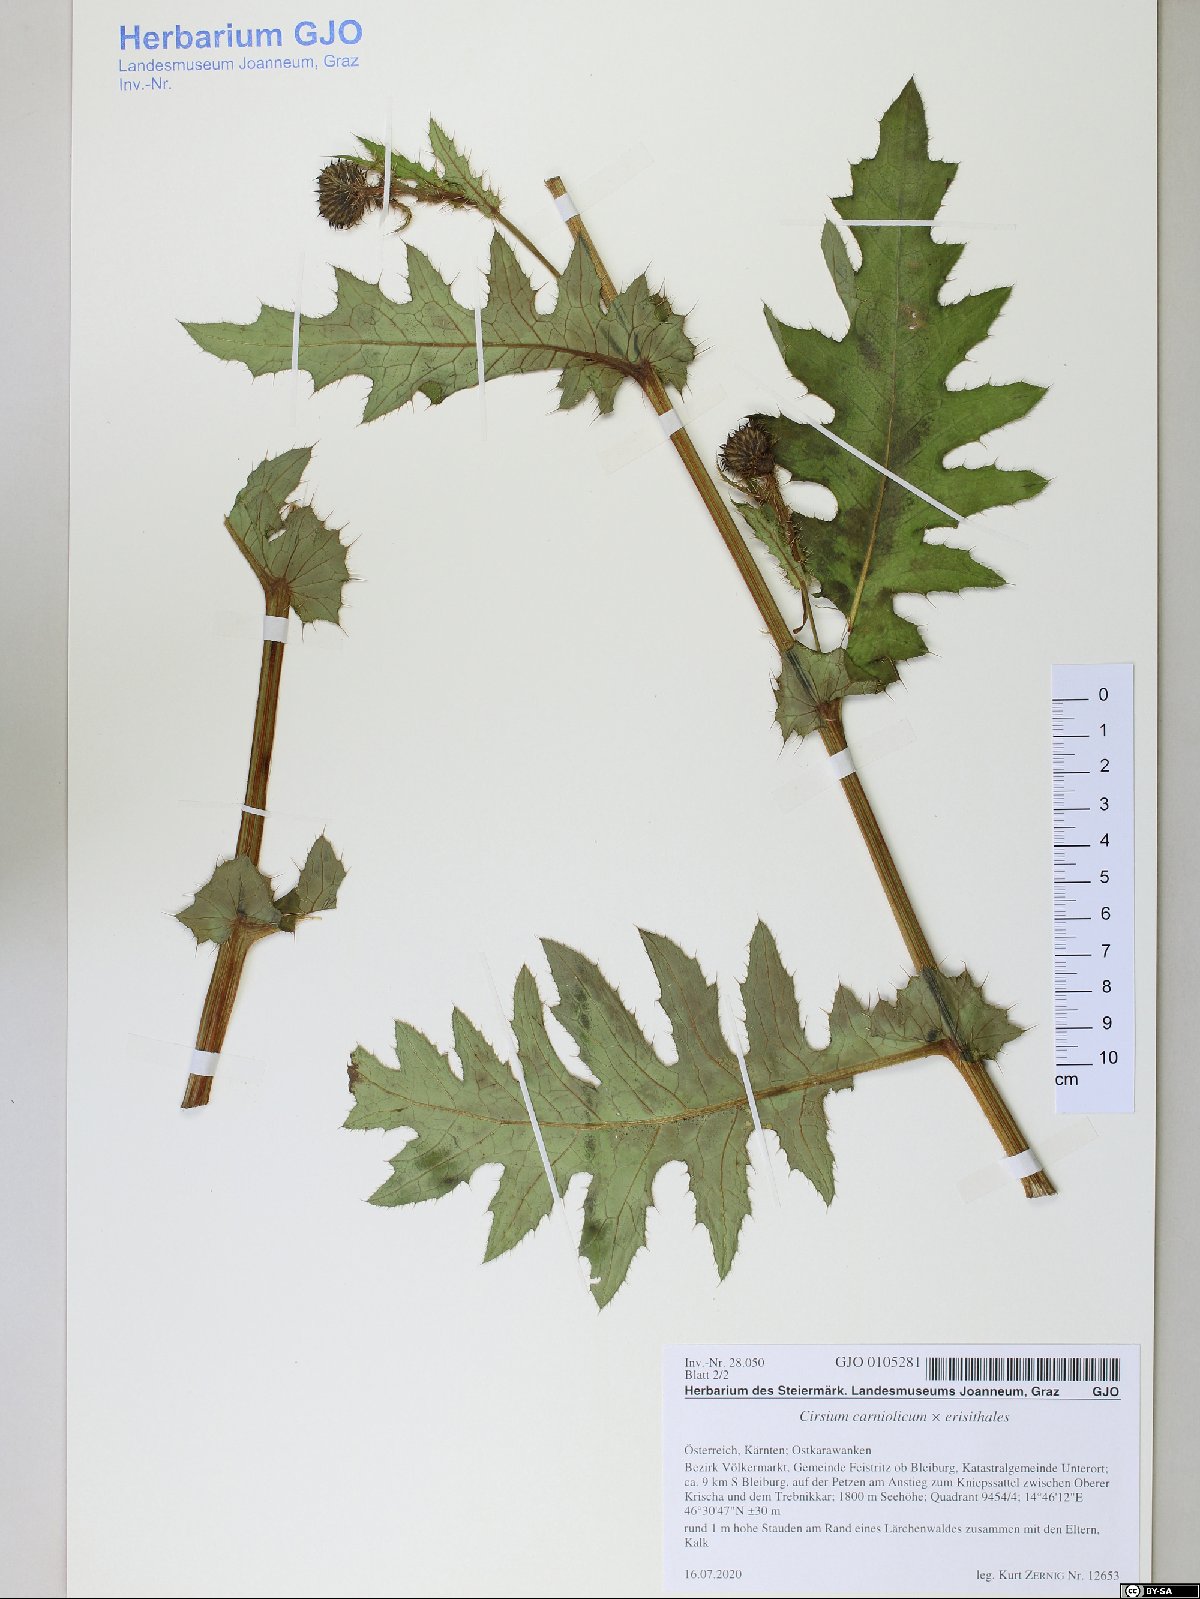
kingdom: Plantae
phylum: Tracheophyta
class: Magnoliopsida
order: Asterales
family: Asteraceae
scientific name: Asteraceae
